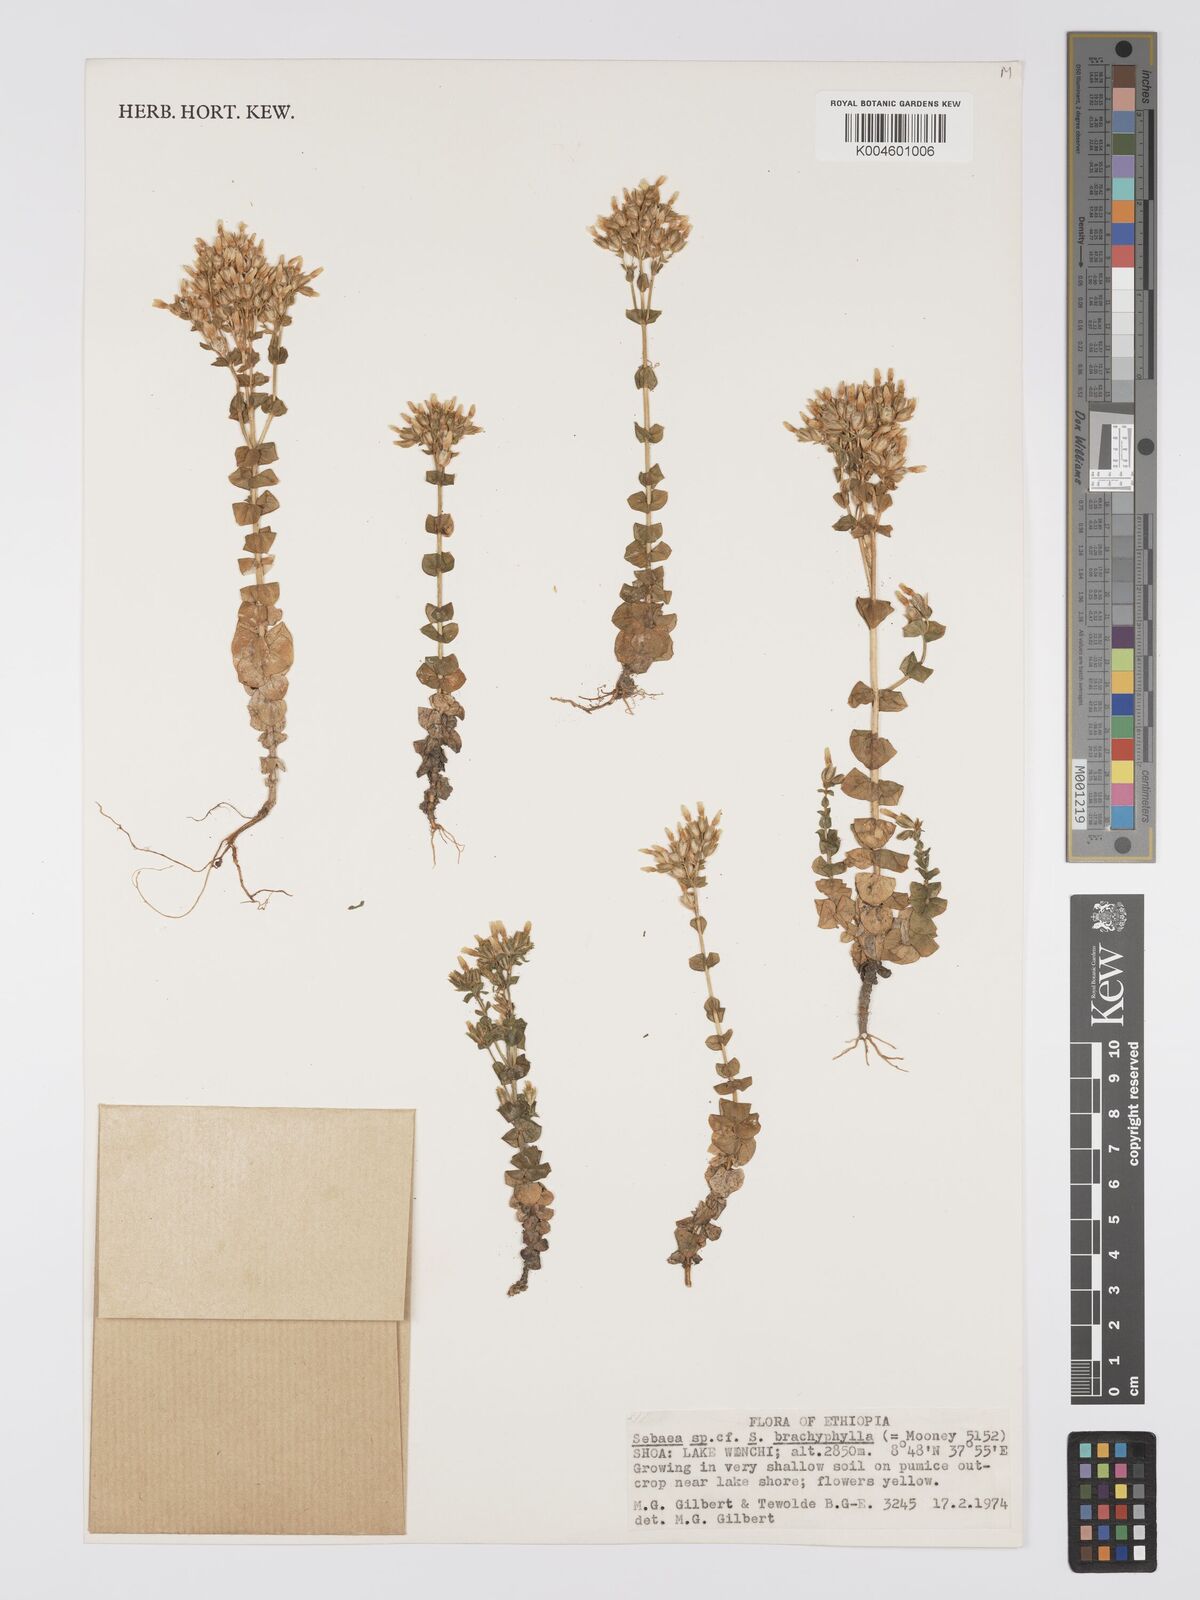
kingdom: Plantae
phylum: Tracheophyta
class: Magnoliopsida
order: Gentianales
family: Gentianaceae
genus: Sebaea
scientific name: Sebaea brachyphylla
